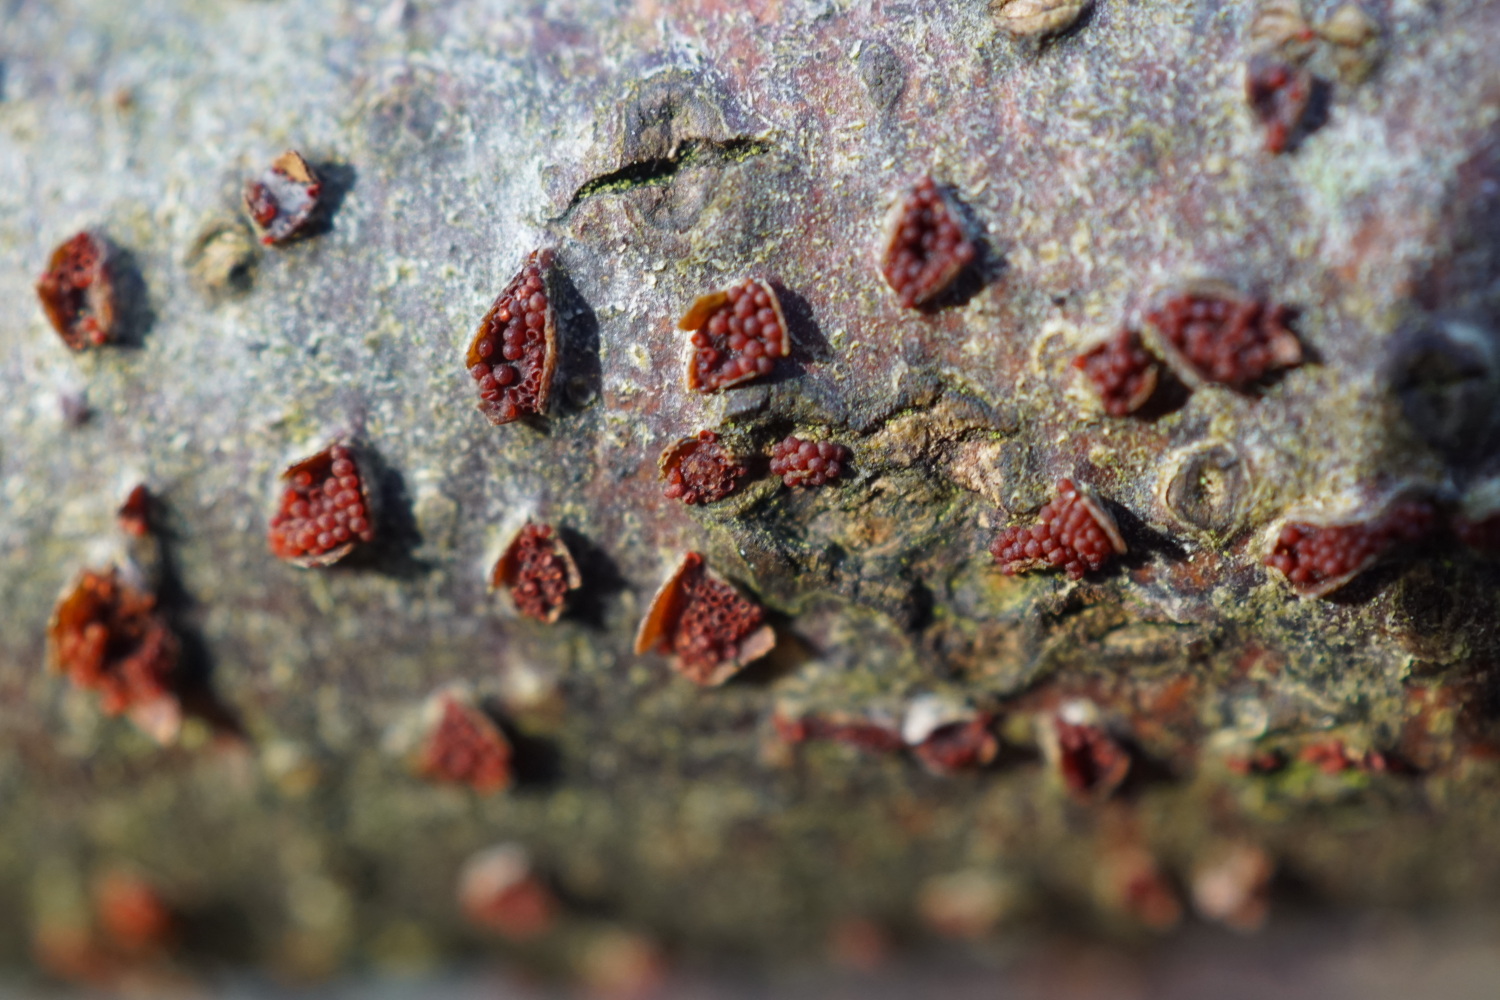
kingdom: Fungi
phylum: Ascomycota
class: Sordariomycetes
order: Hypocreales
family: Nectriaceae
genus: Neonectria
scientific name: Neonectria coccinea
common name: bøgebark-cinnobersvamp
